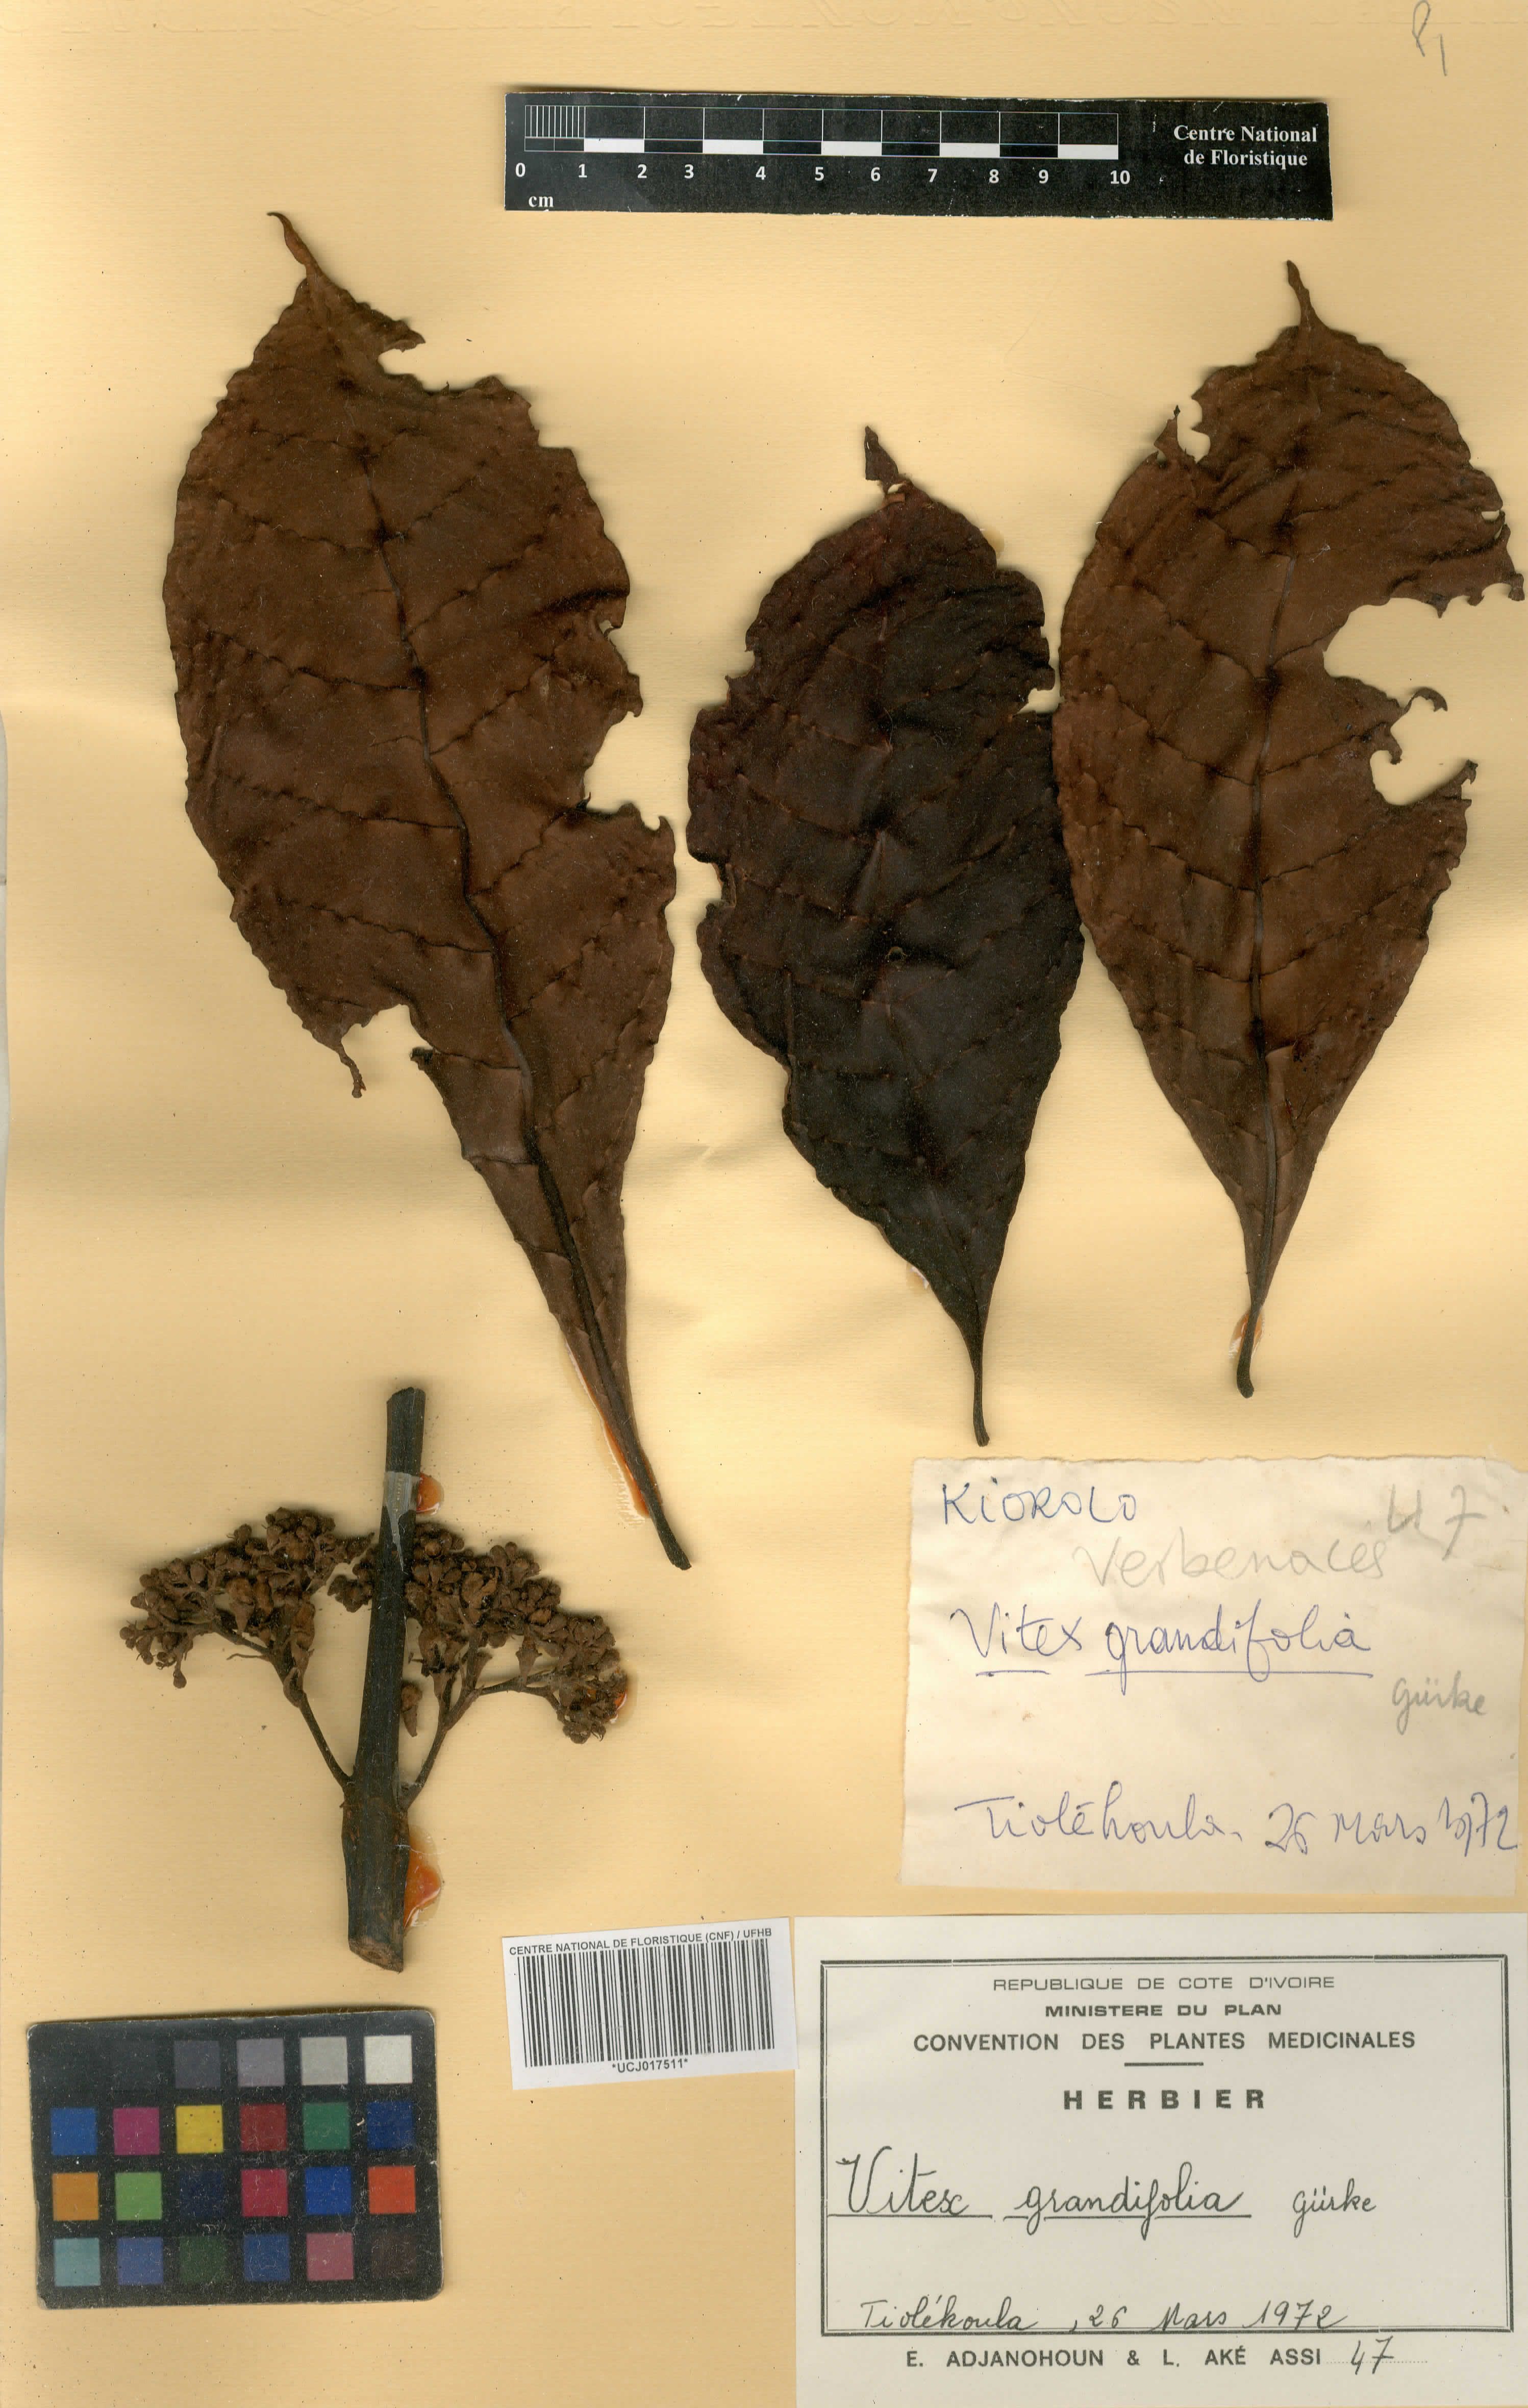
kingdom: Plantae
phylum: Tracheophyta
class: Magnoliopsida
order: Lamiales
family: Lamiaceae
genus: Vitex
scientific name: Vitex grandifolia
